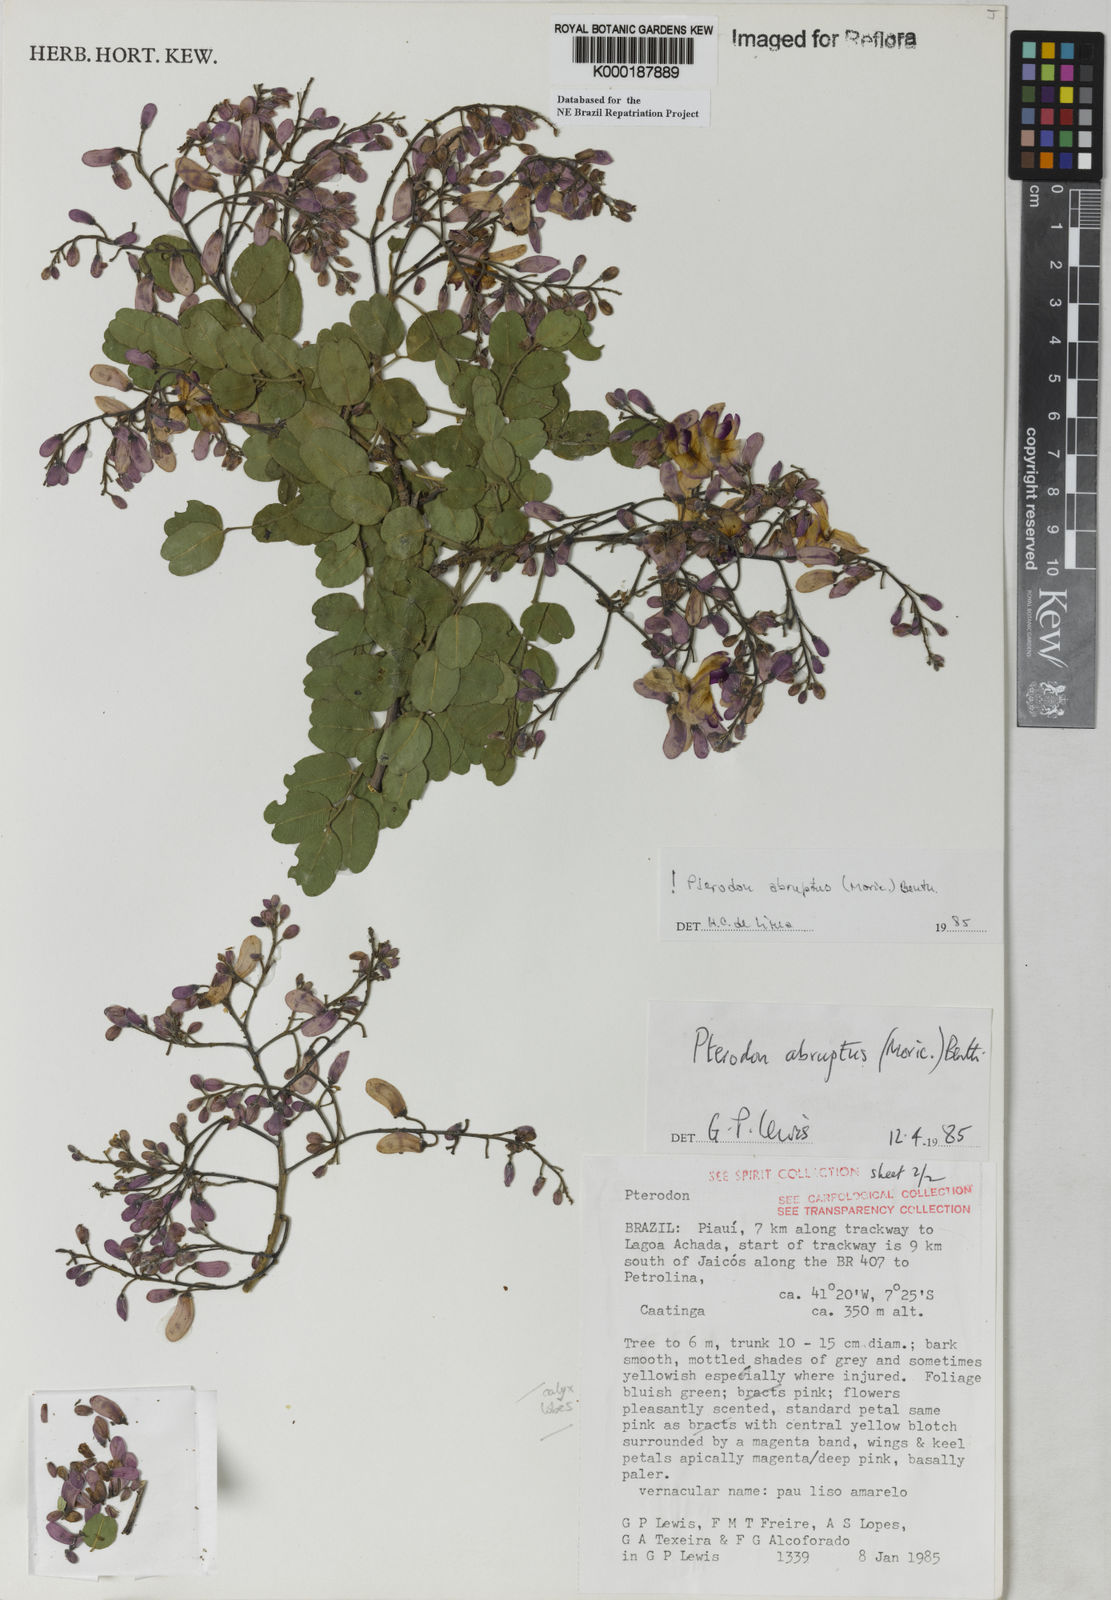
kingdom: Plantae
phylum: Tracheophyta
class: Magnoliopsida
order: Fabales
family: Fabaceae
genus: Pterodon
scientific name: Pterodon abruptus
